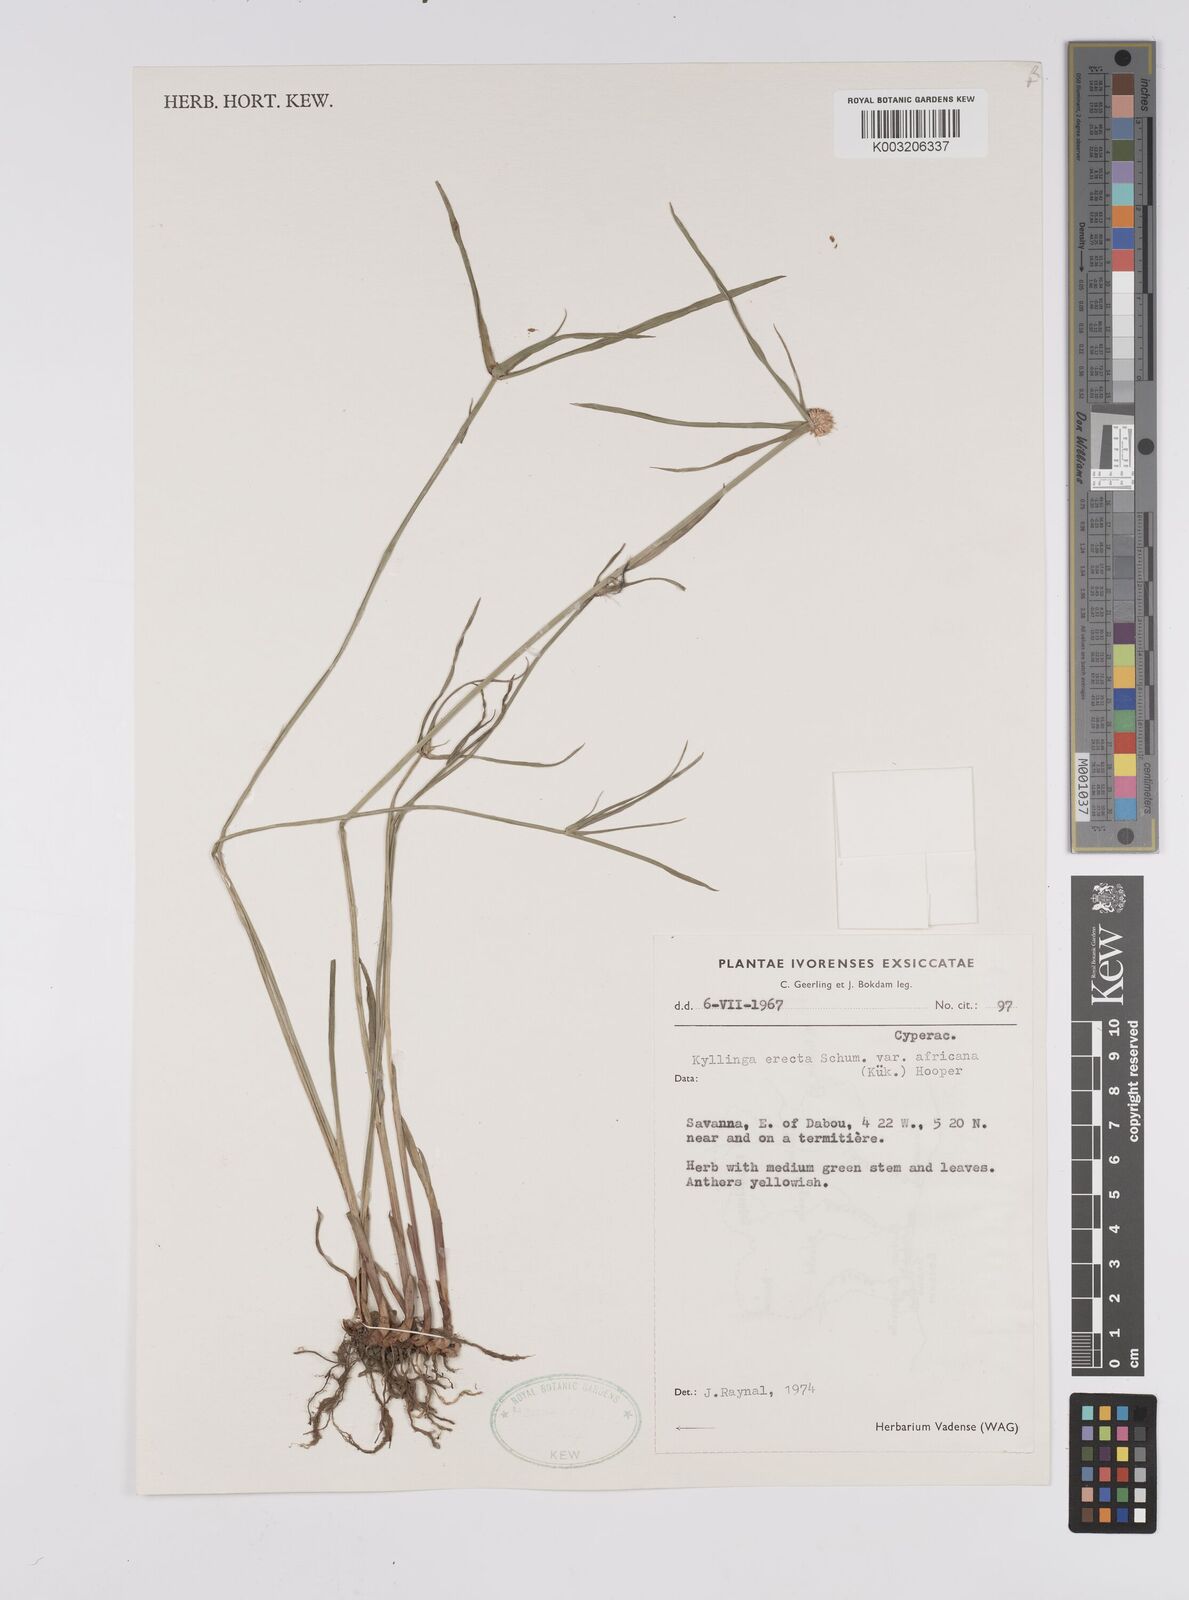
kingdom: Plantae
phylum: Tracheophyta
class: Liliopsida
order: Poales
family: Cyperaceae
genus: Cyperus
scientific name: Cyperus erectus
